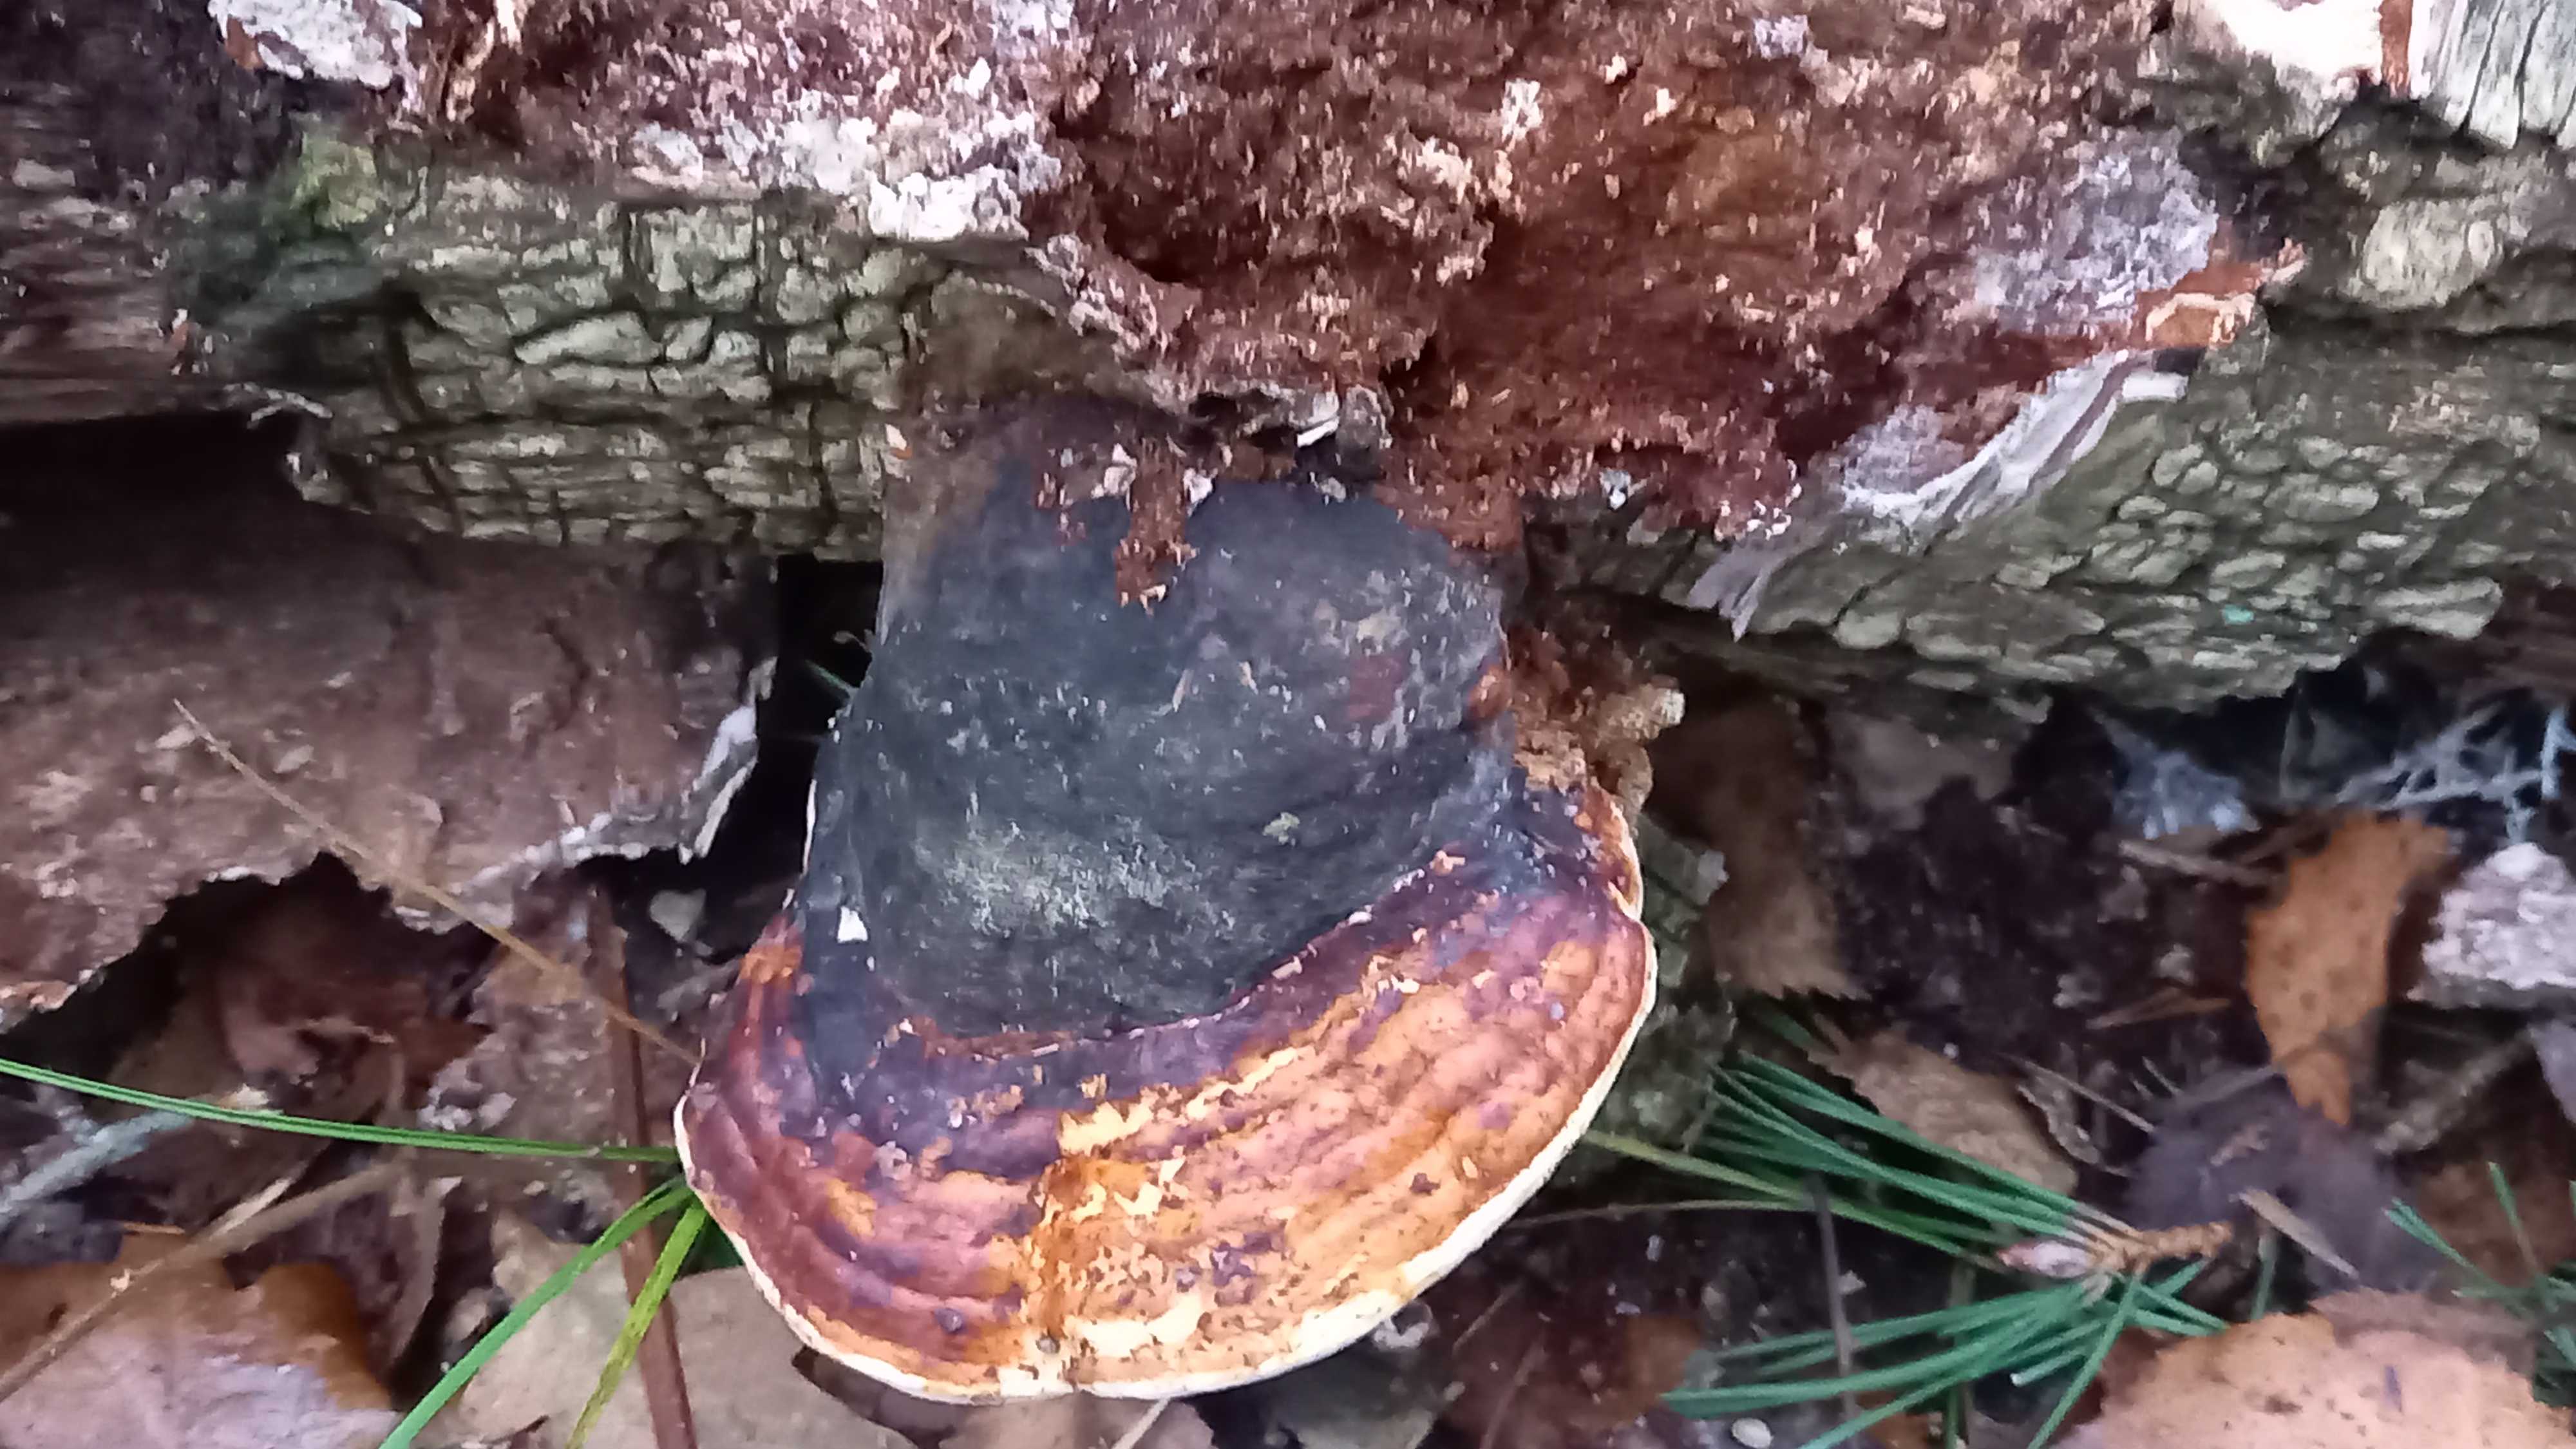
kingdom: Fungi
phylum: Basidiomycota
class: Agaricomycetes
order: Polyporales
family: Fomitopsidaceae
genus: Fomitopsis
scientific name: Fomitopsis pinicola
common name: randbæltet hovporesvamp
